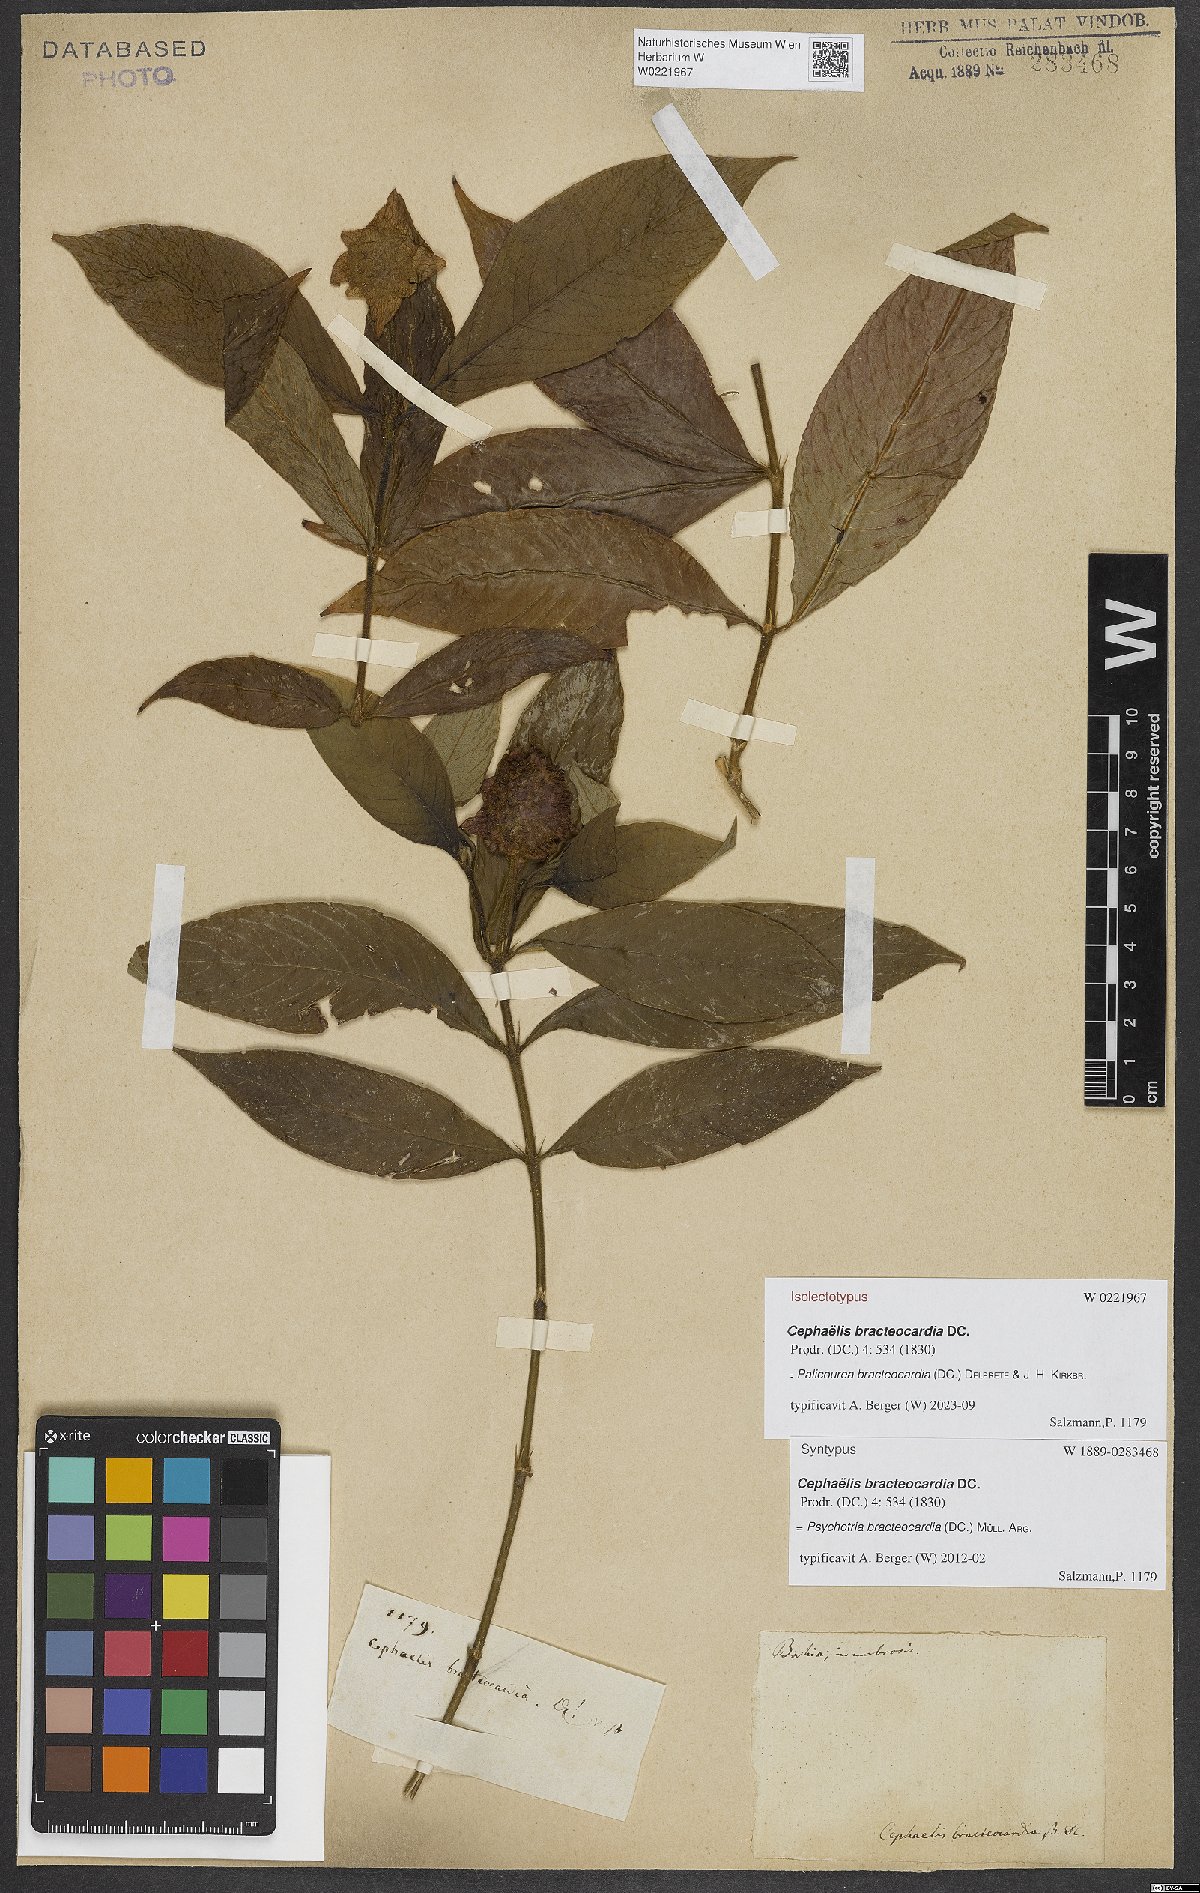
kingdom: Plantae
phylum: Tracheophyta
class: Magnoliopsida
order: Gentianales
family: Rubiaceae
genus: Palicourea
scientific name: Palicourea bracteocardia
